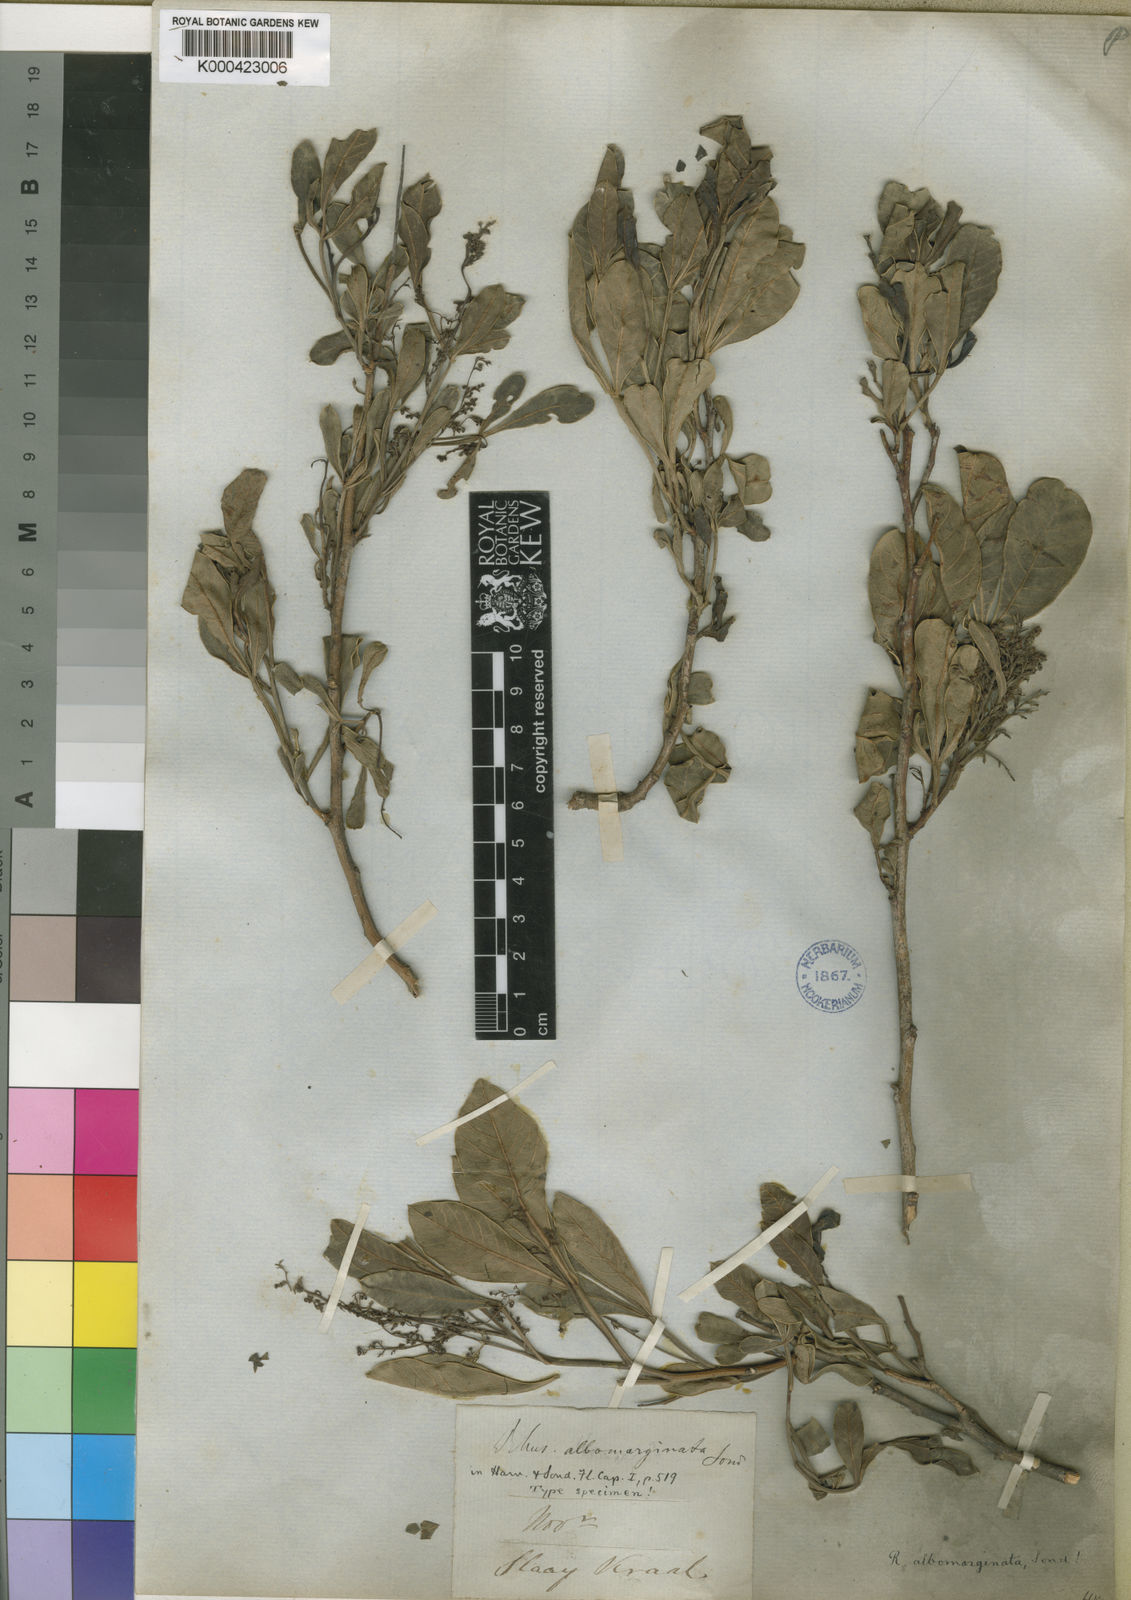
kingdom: Plantae
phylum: Tracheophyta
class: Magnoliopsida
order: Sapindales
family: Anacardiaceae
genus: Searsia
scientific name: Searsia albomarginata
